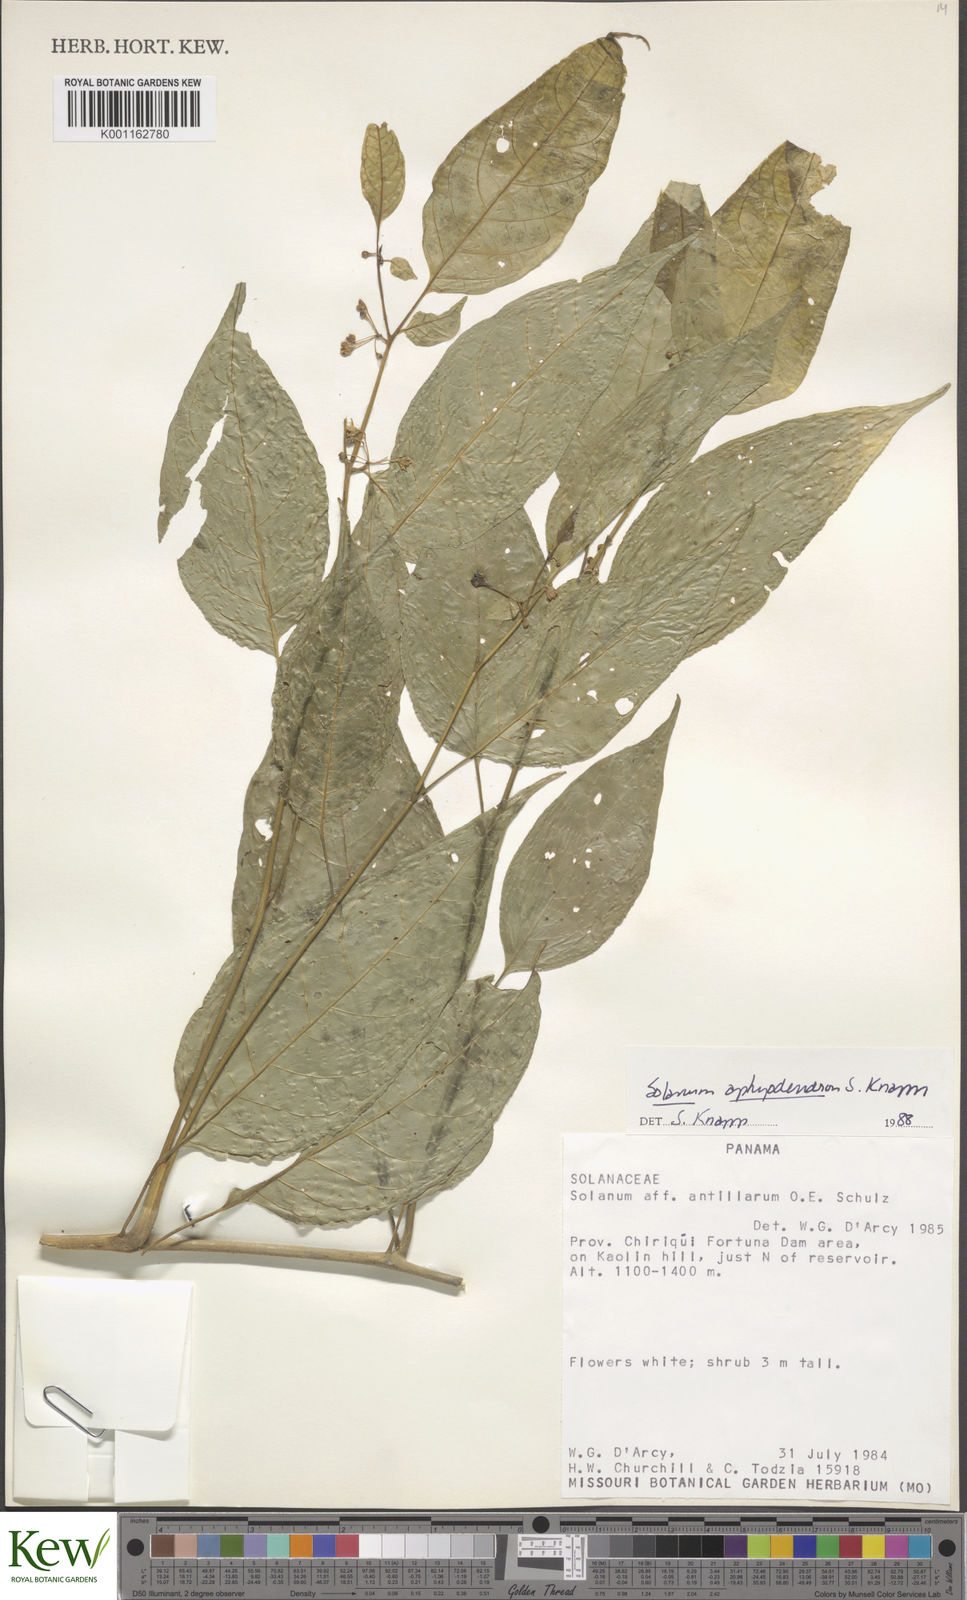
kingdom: Plantae
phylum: Tracheophyta
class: Magnoliopsida
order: Solanales
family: Solanaceae
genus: Solanum
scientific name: Solanum aphyodendron
